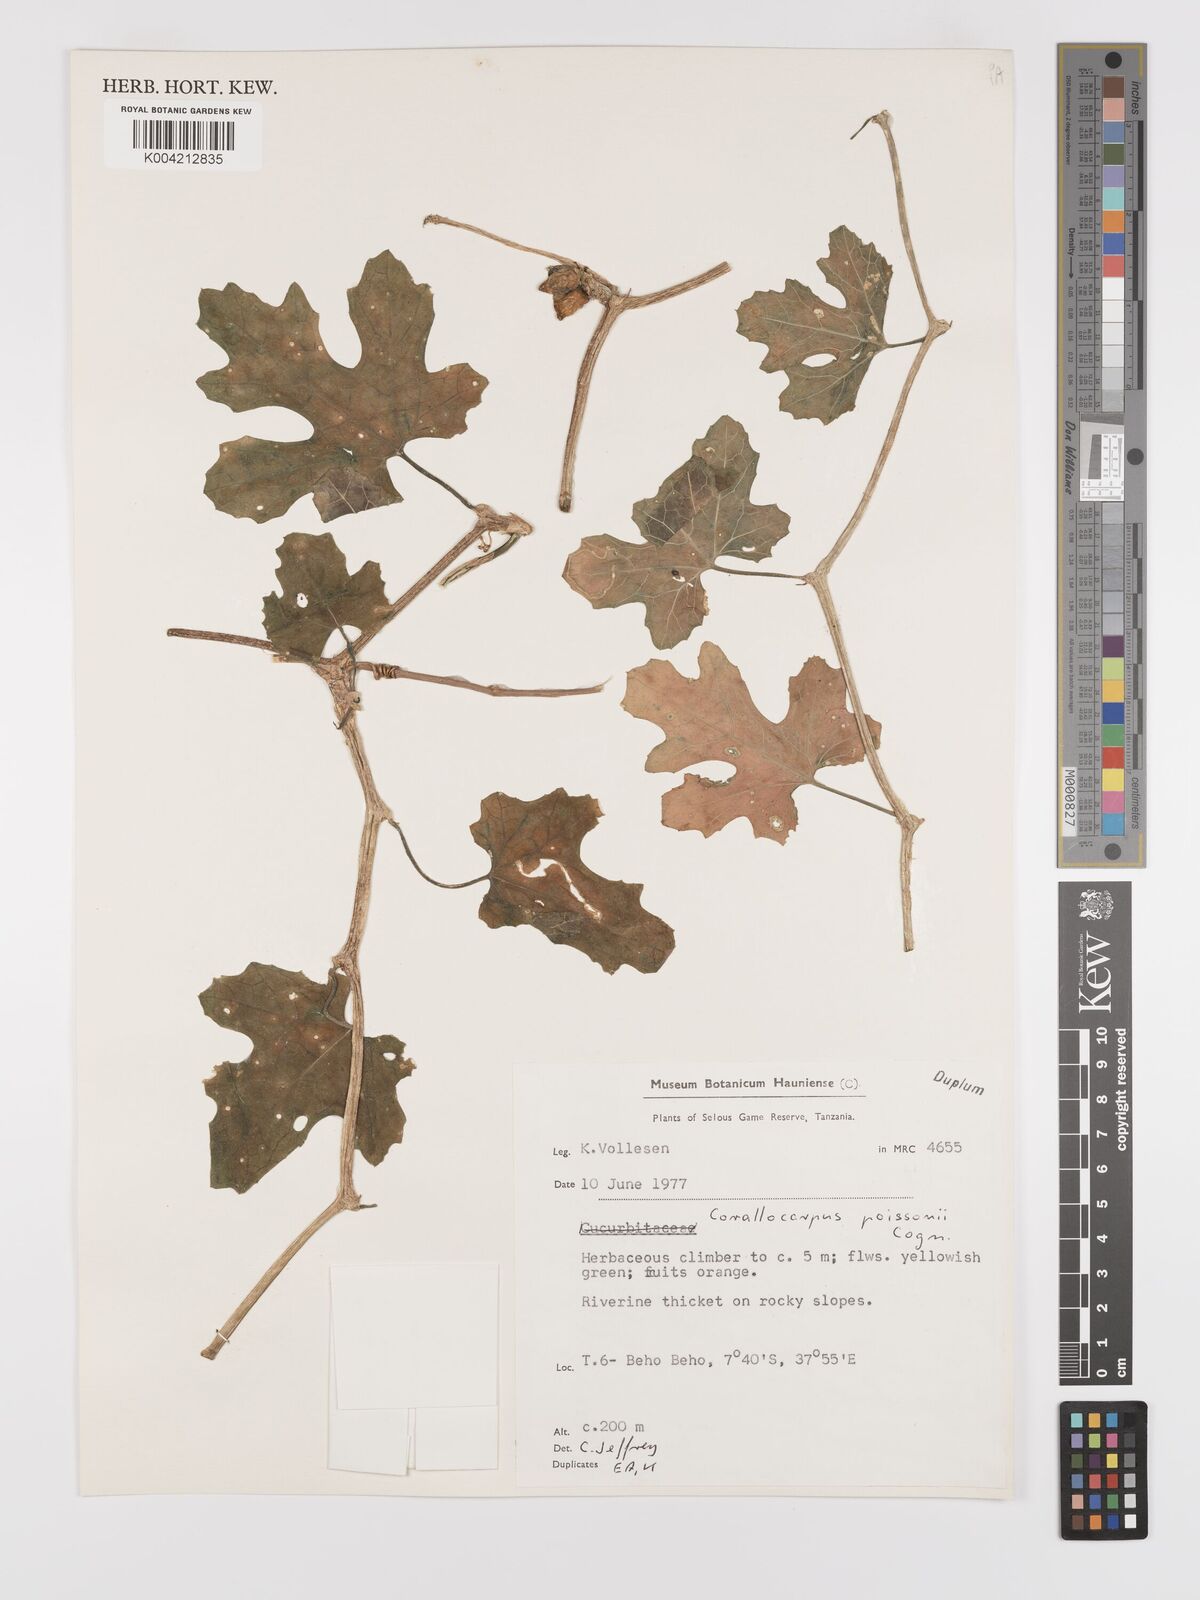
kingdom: Plantae
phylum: Tracheophyta
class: Magnoliopsida
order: Cucurbitales
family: Cucurbitaceae
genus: Corallocarpus
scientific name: Corallocarpus bainesii
